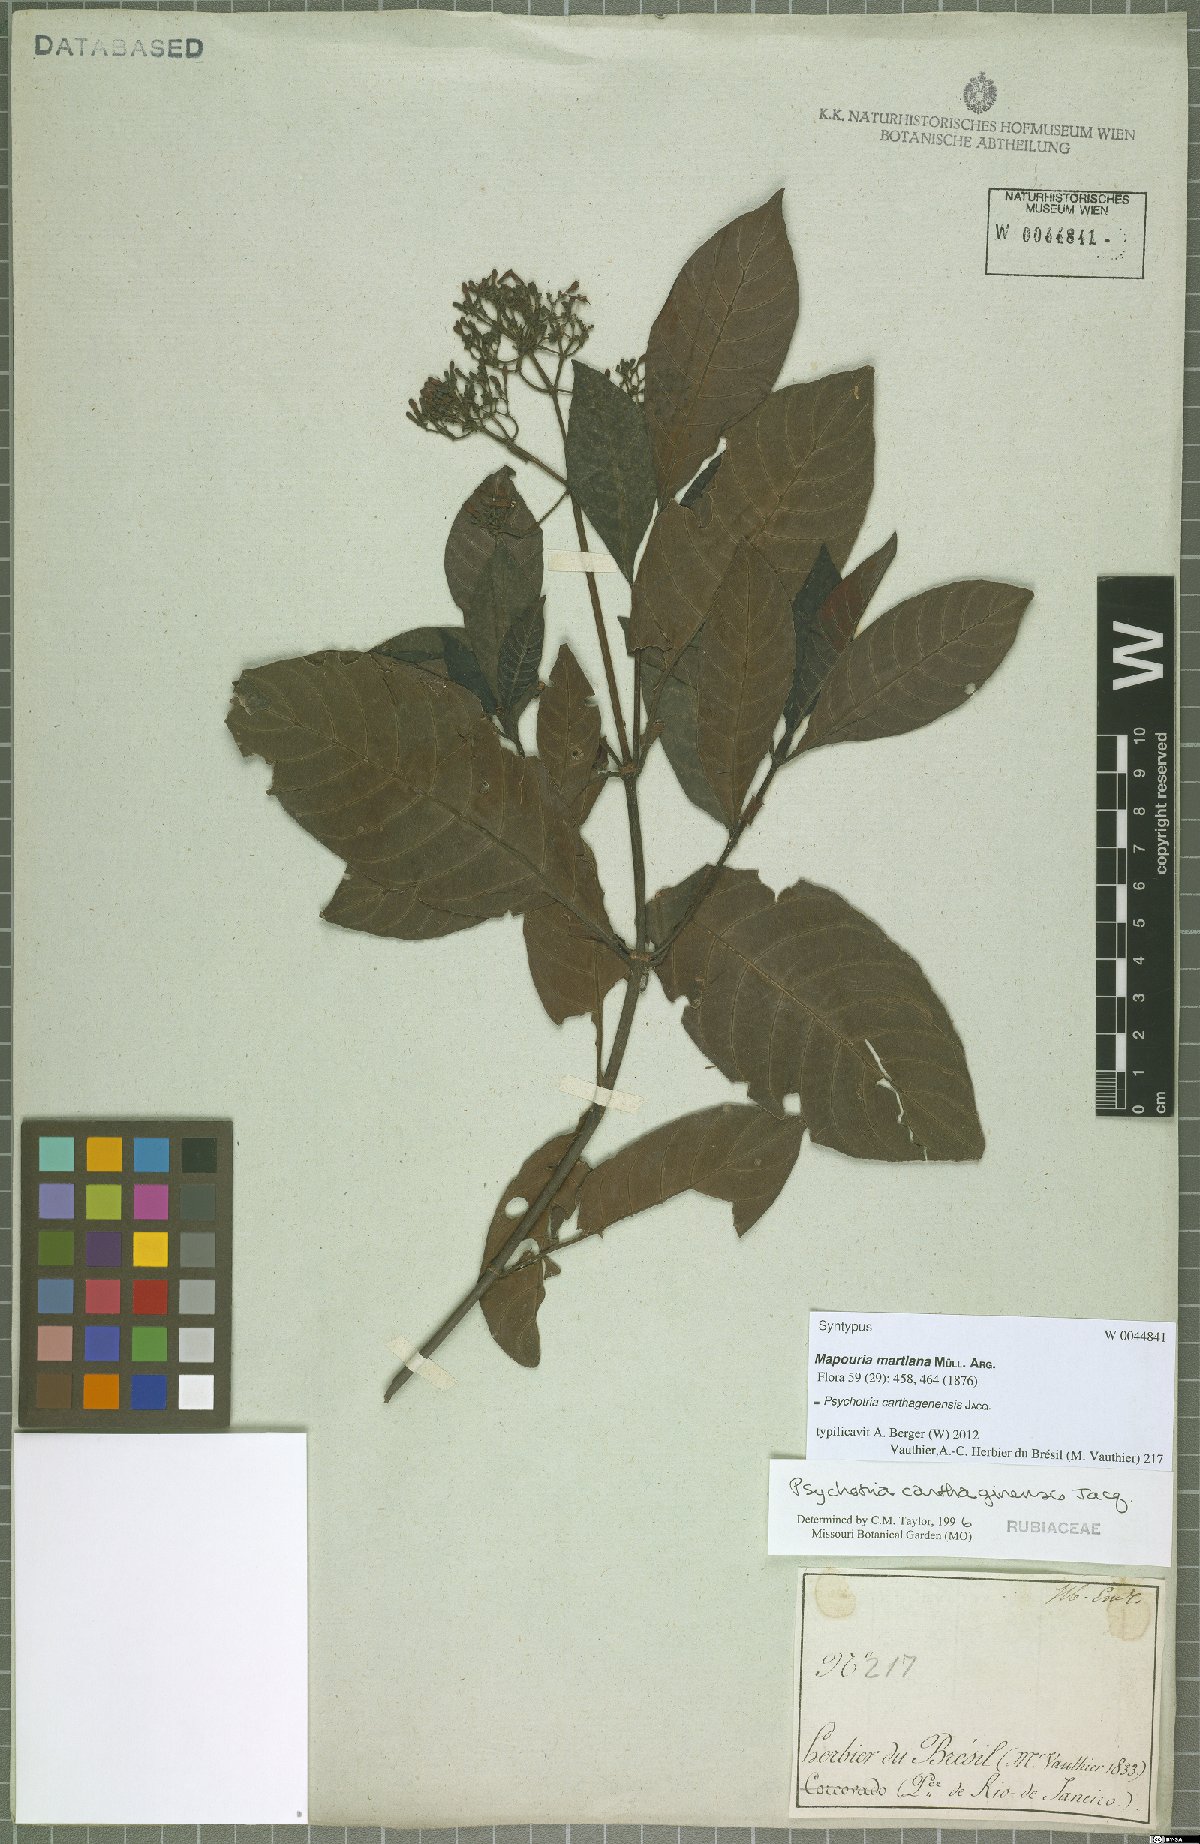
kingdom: Plantae
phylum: Tracheophyta
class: Magnoliopsida
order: Gentianales
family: Rubiaceae
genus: Psychotria
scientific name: Psychotria carthagenensis
